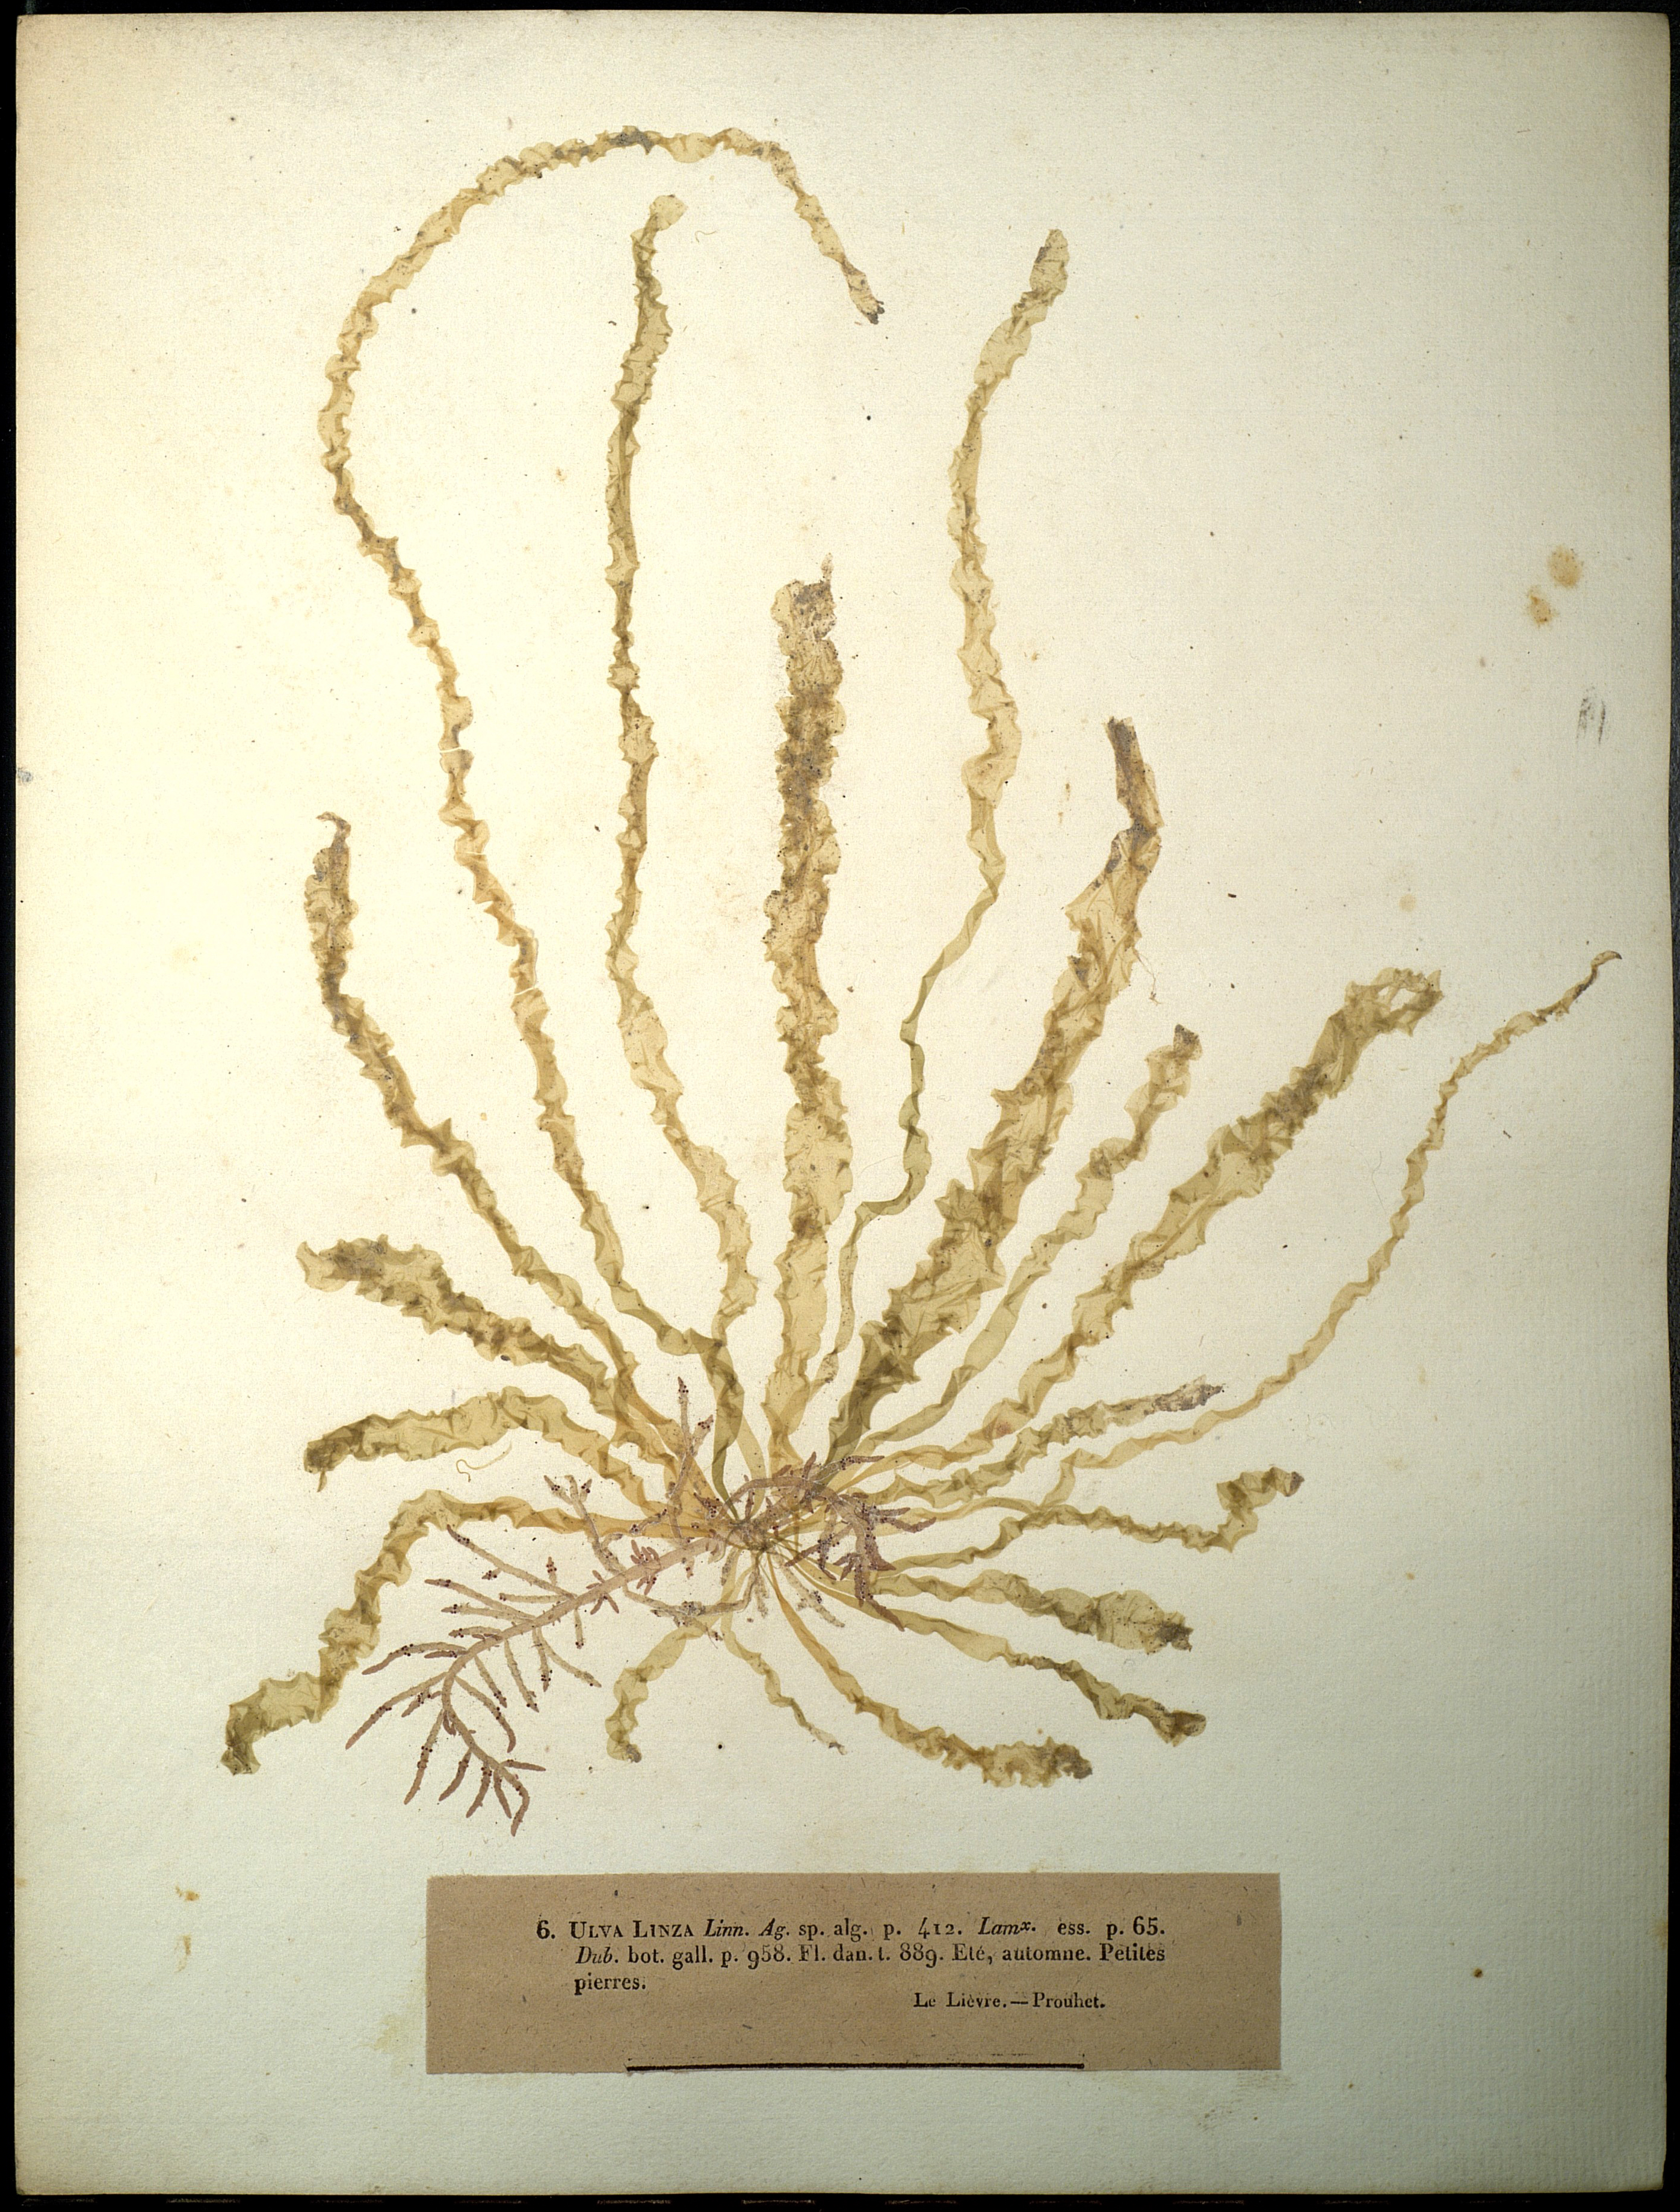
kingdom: Plantae
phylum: Chlorophyta
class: Ulvophyceae
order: Ulvales
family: Ulvaceae
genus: Ulva
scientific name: Ulva linza
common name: Green string lettuce
